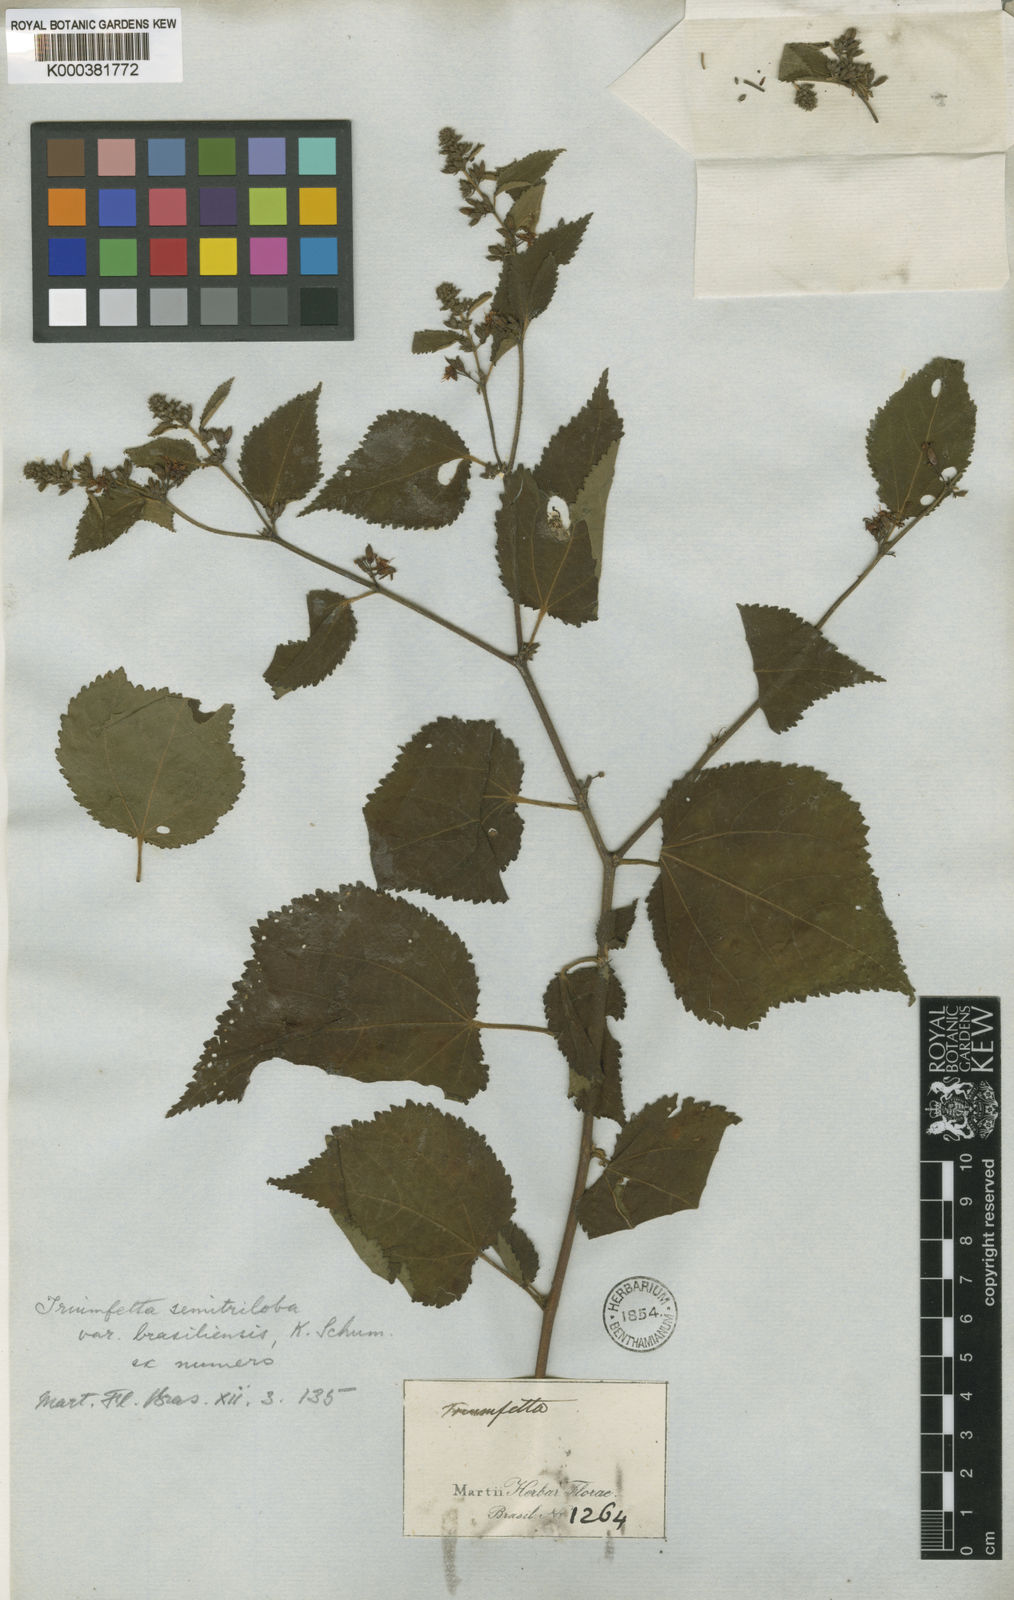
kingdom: Plantae
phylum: Tracheophyta
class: Magnoliopsida
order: Malvales
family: Malvaceae
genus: Triumfetta
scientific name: Triumfetta semitriloba
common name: Sacramento burbark
